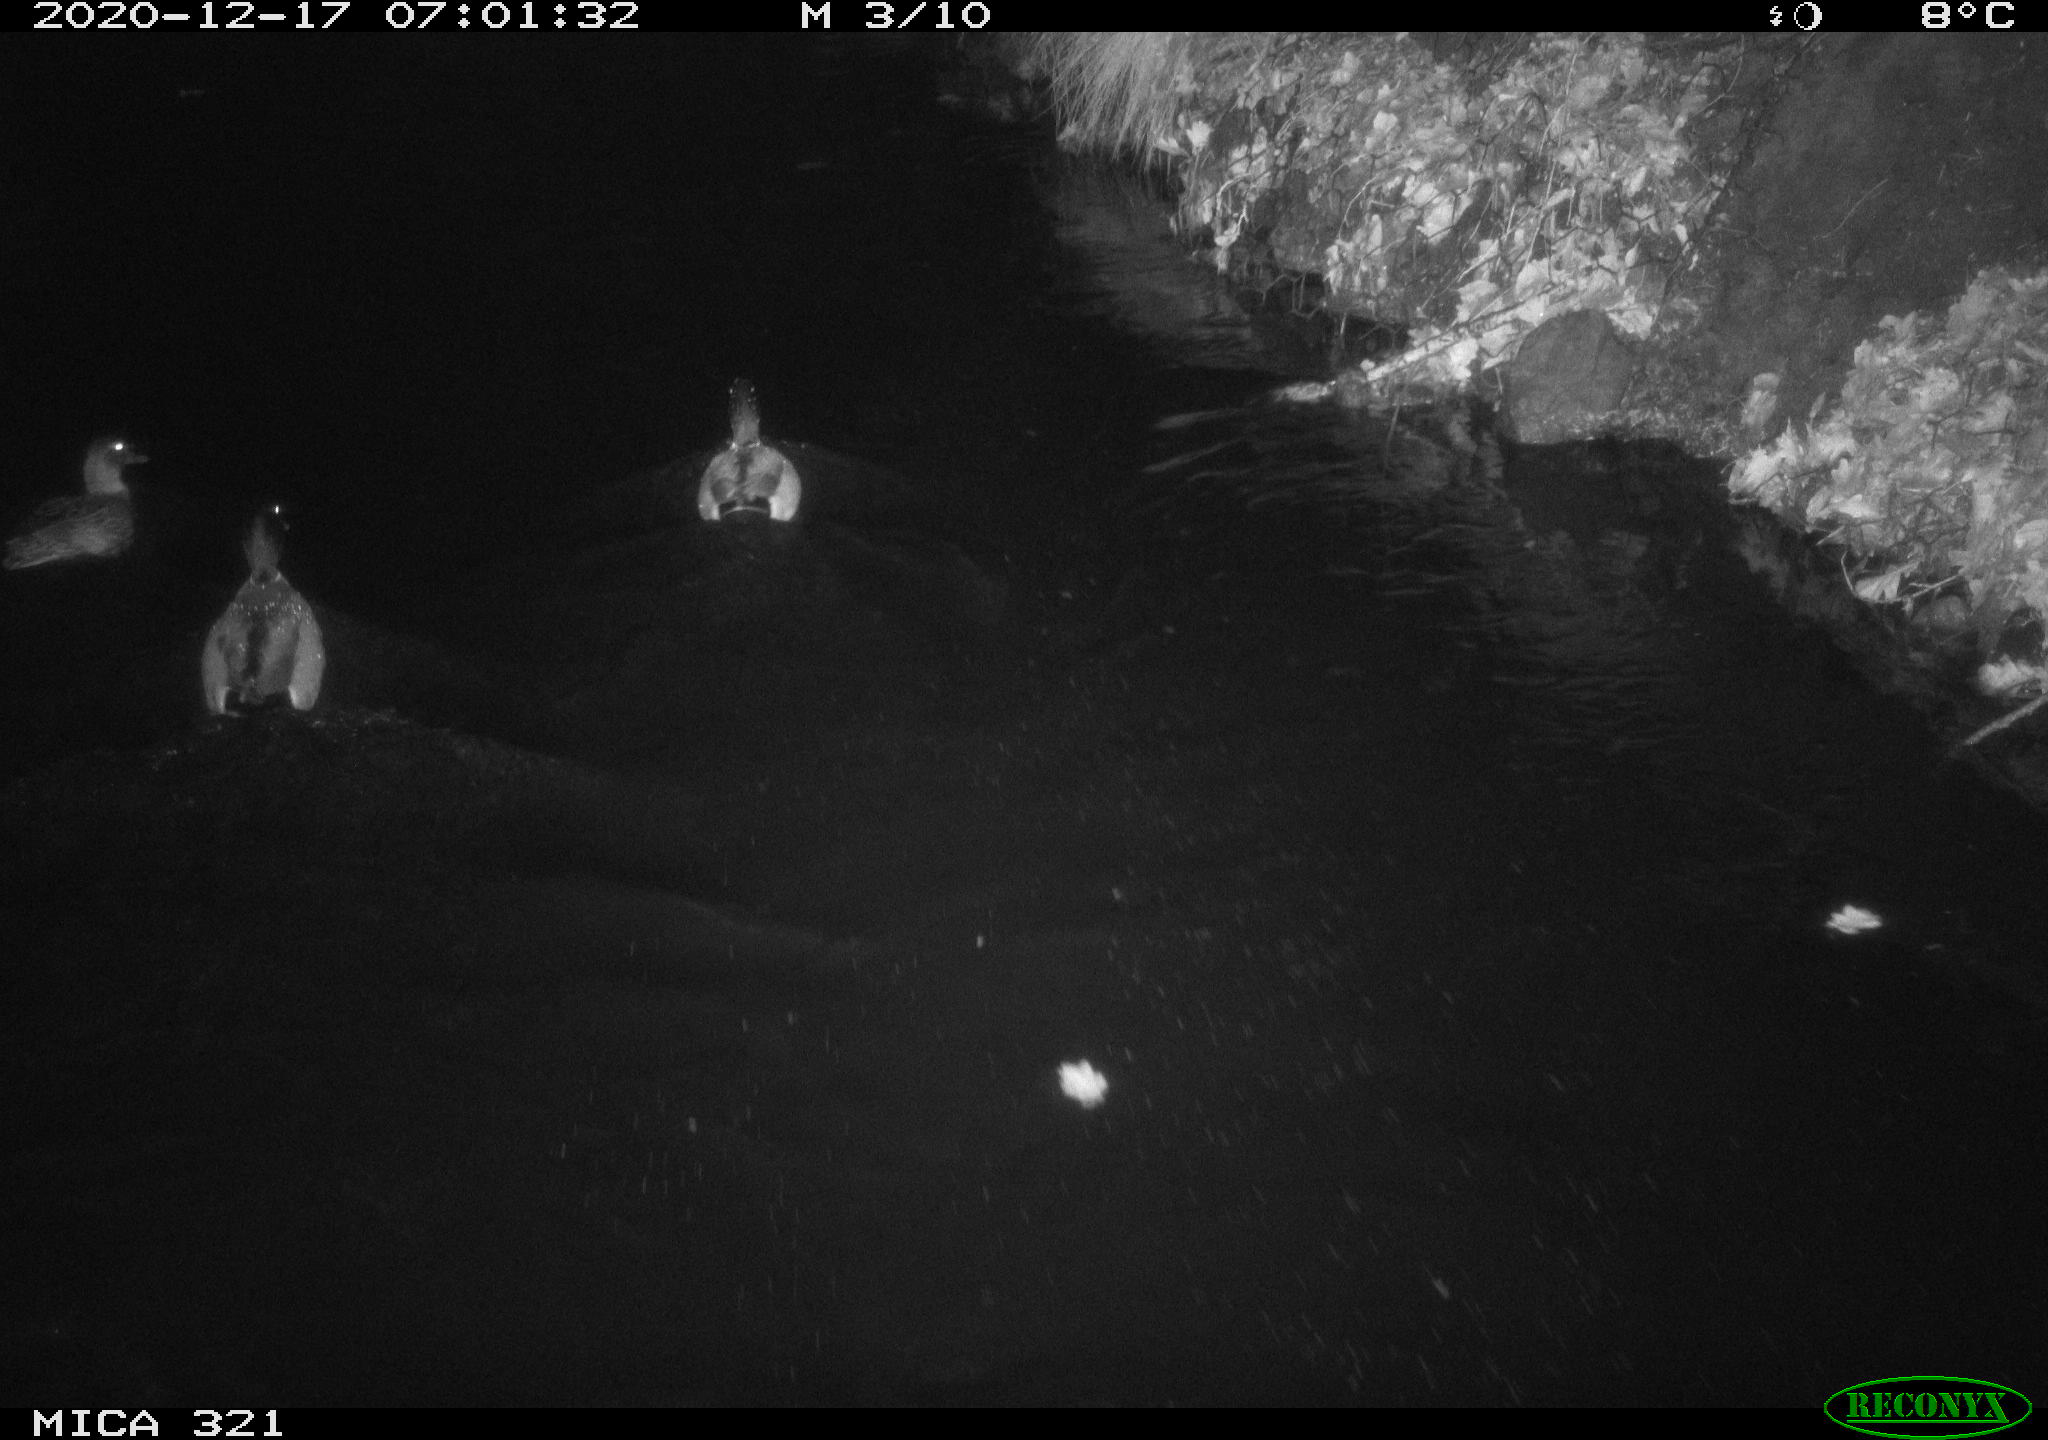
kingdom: Animalia
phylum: Chordata
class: Aves
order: Anseriformes
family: Anatidae
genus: Anas
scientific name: Anas platyrhynchos
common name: Mallard
